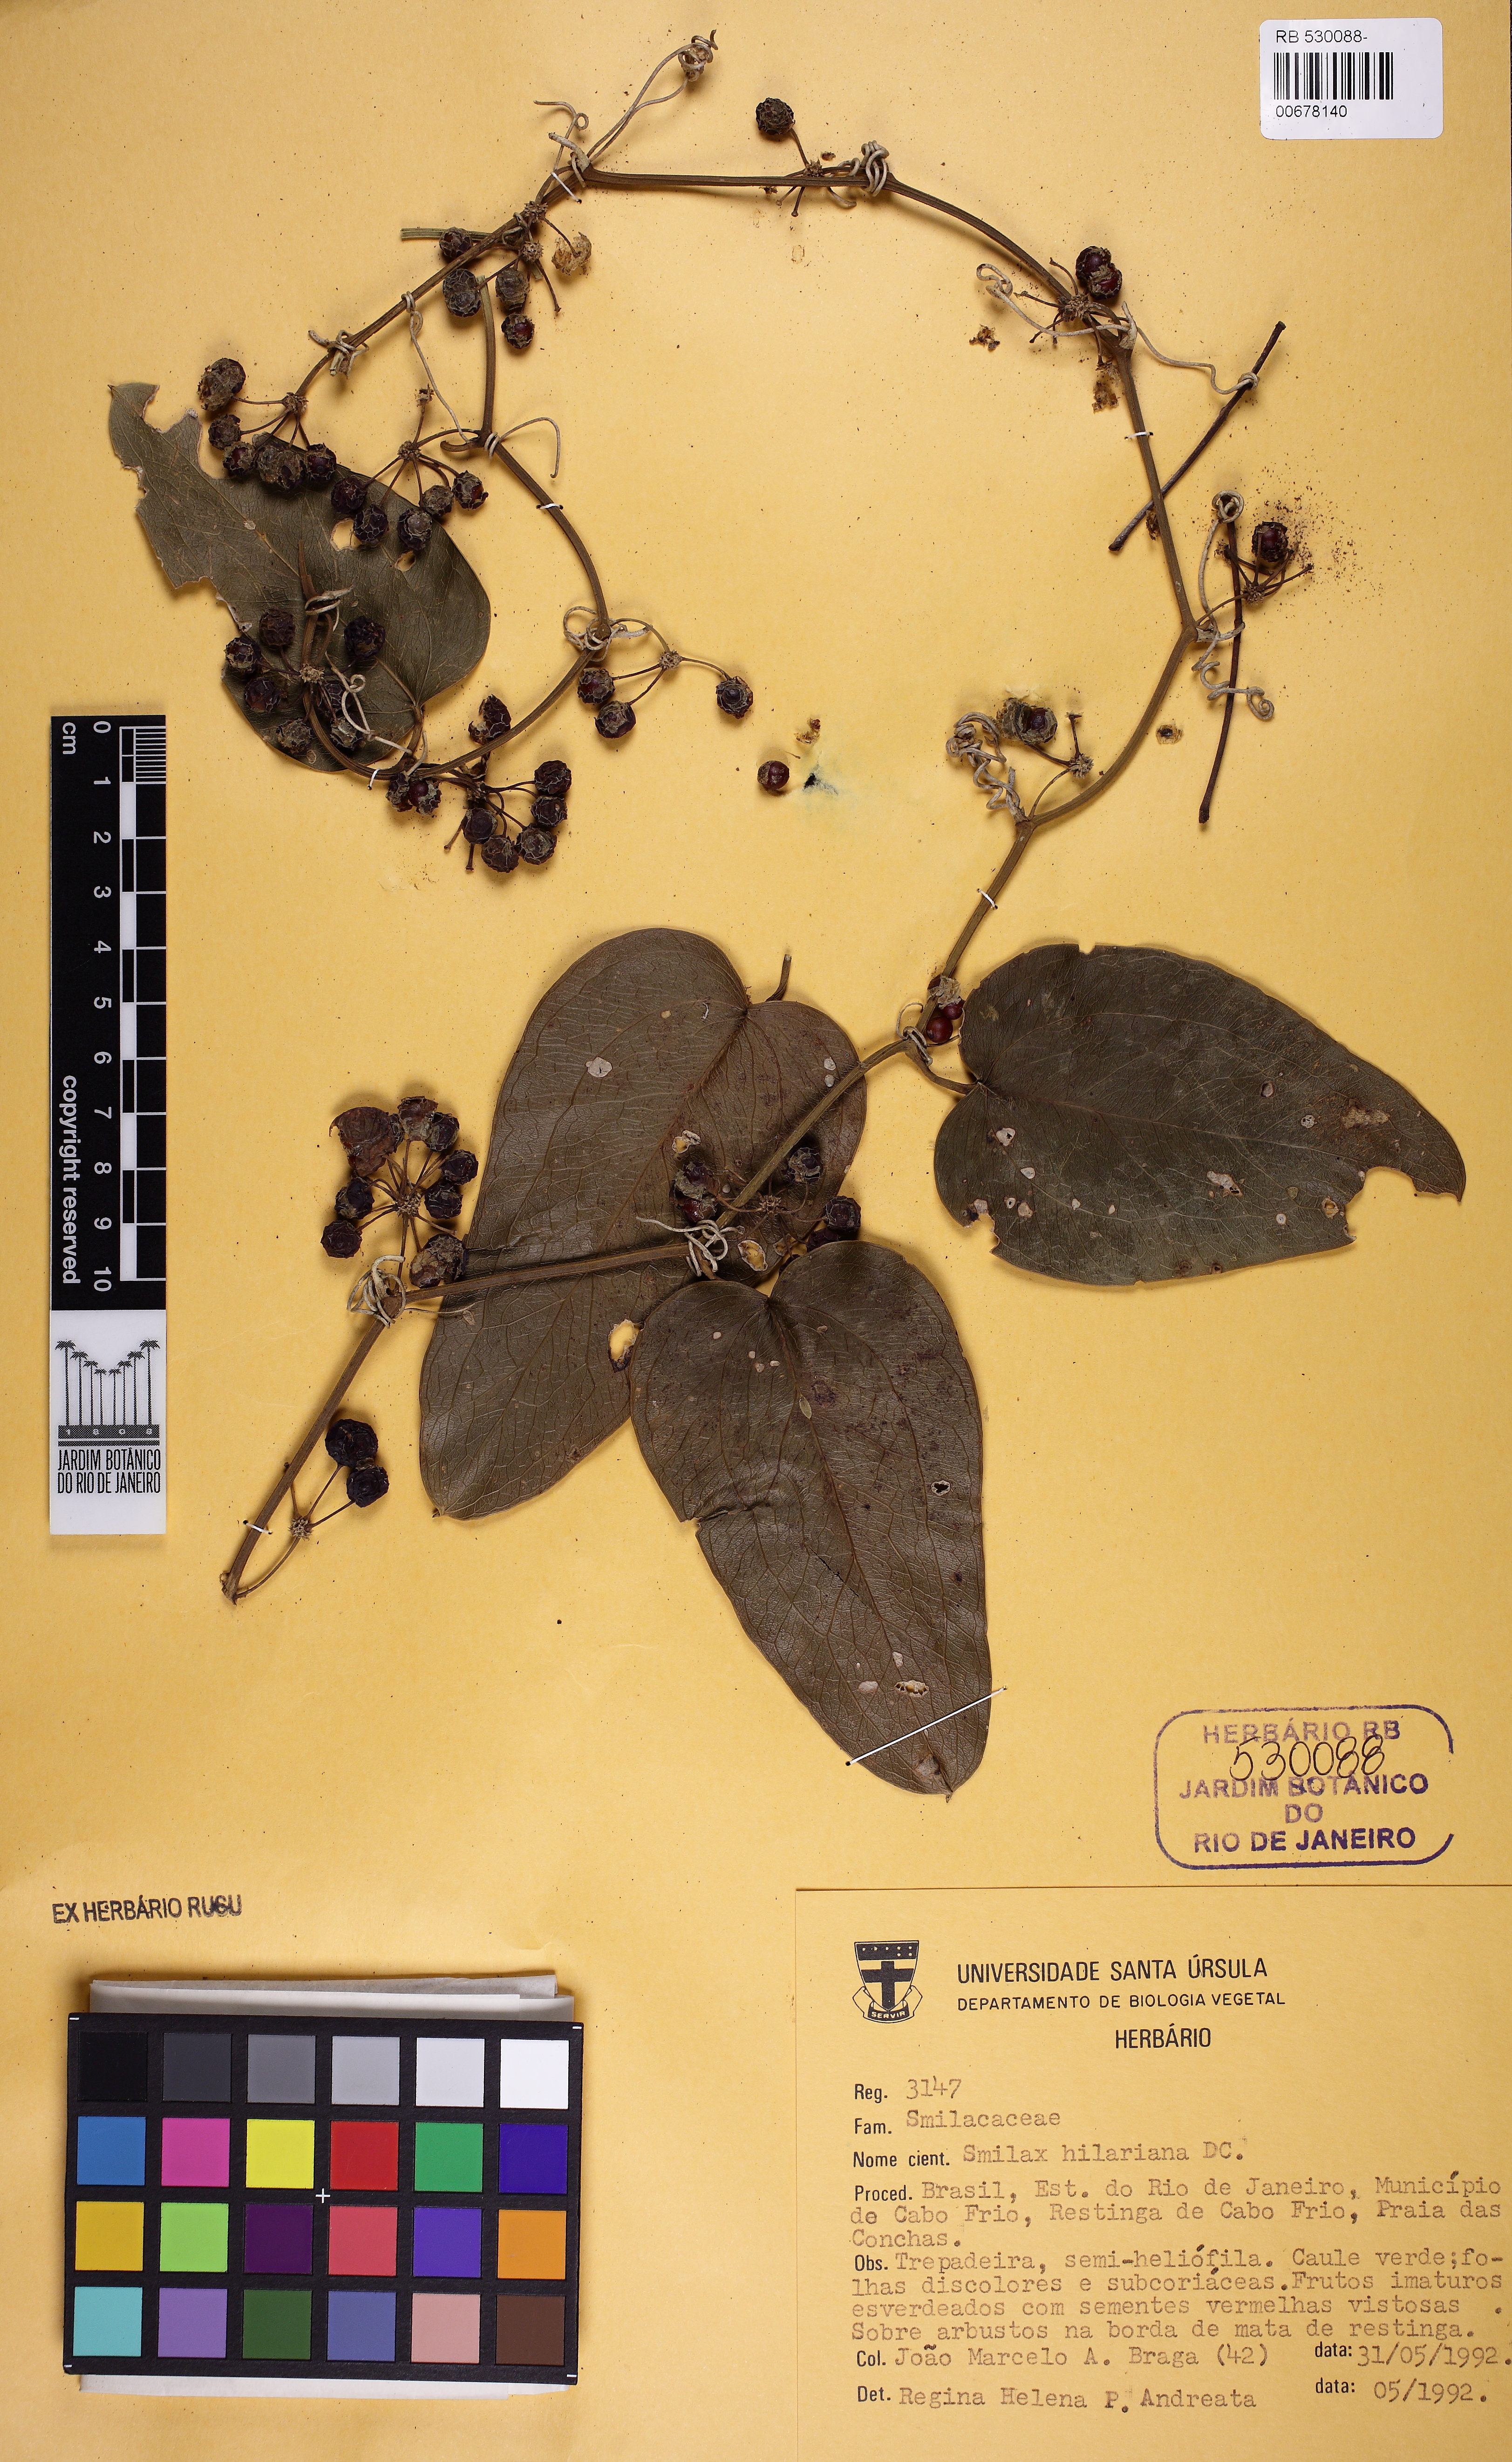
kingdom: Plantae
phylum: Tracheophyta
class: Liliopsida
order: Liliales
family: Smilacaceae
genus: Smilax
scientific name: Smilax hilariana
